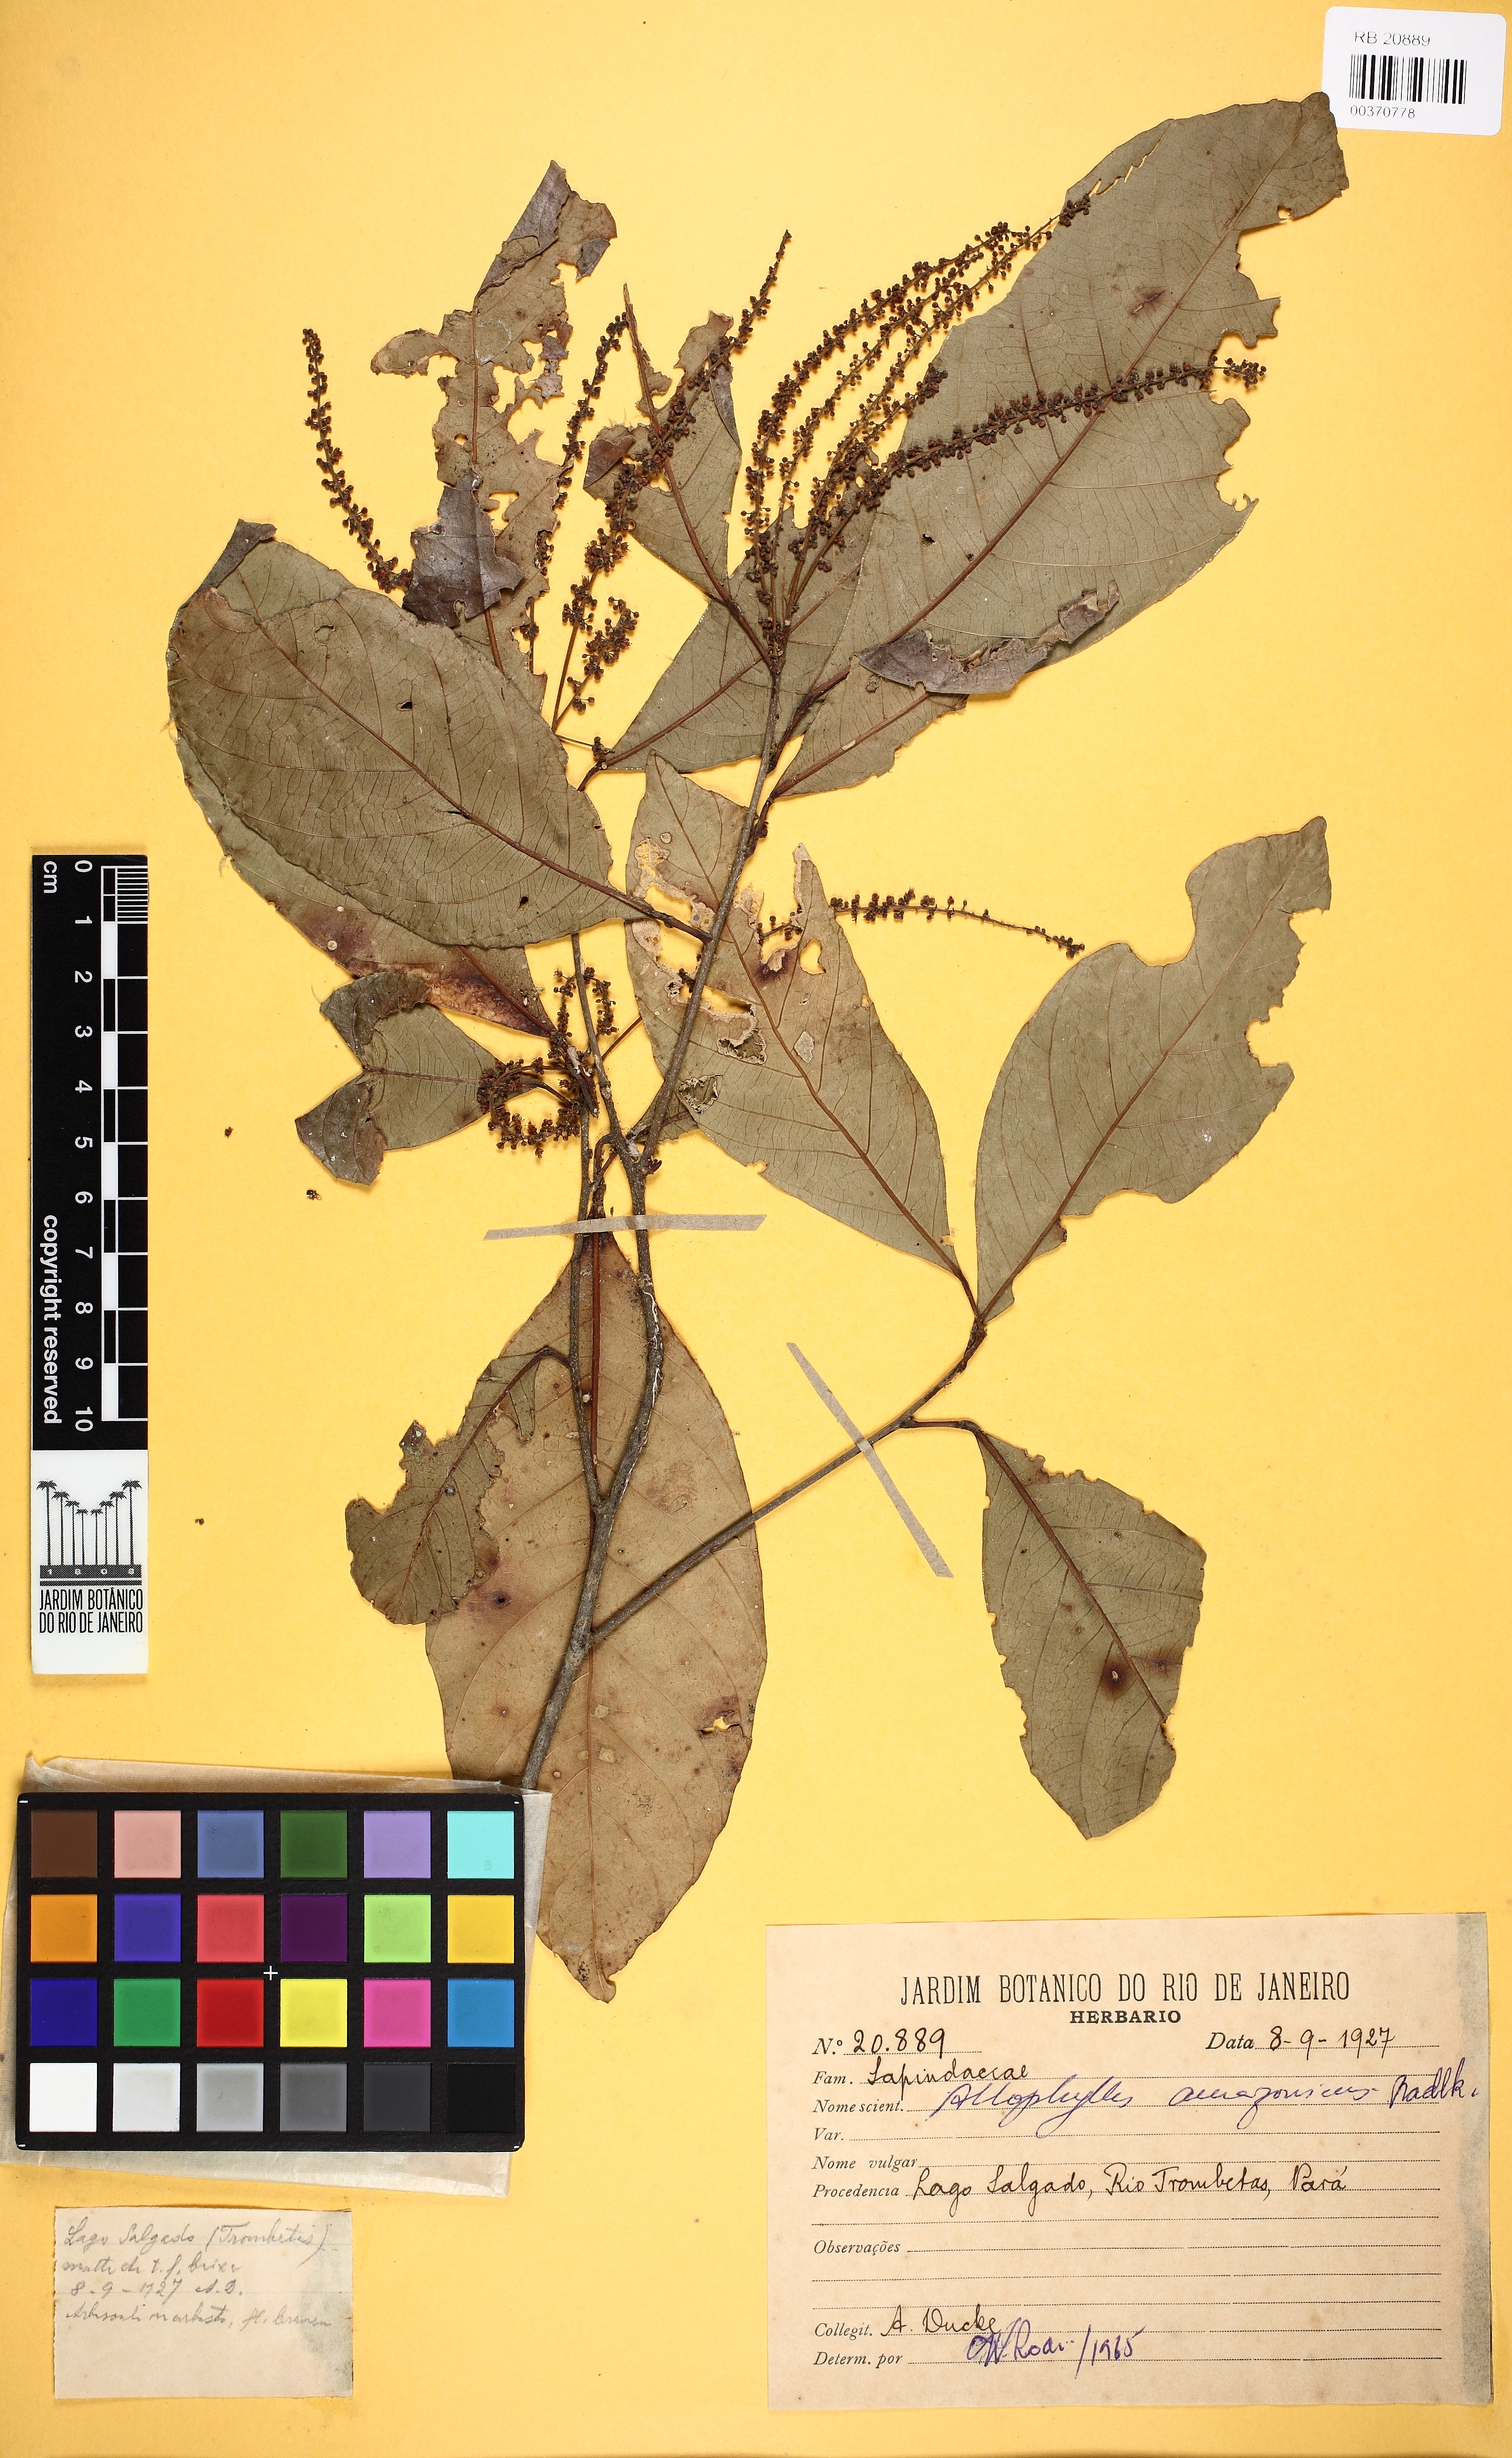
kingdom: Plantae
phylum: Tracheophyta
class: Magnoliopsida
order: Sapindales
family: Sapindaceae
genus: Allophylus
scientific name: Allophylus amazonicus
